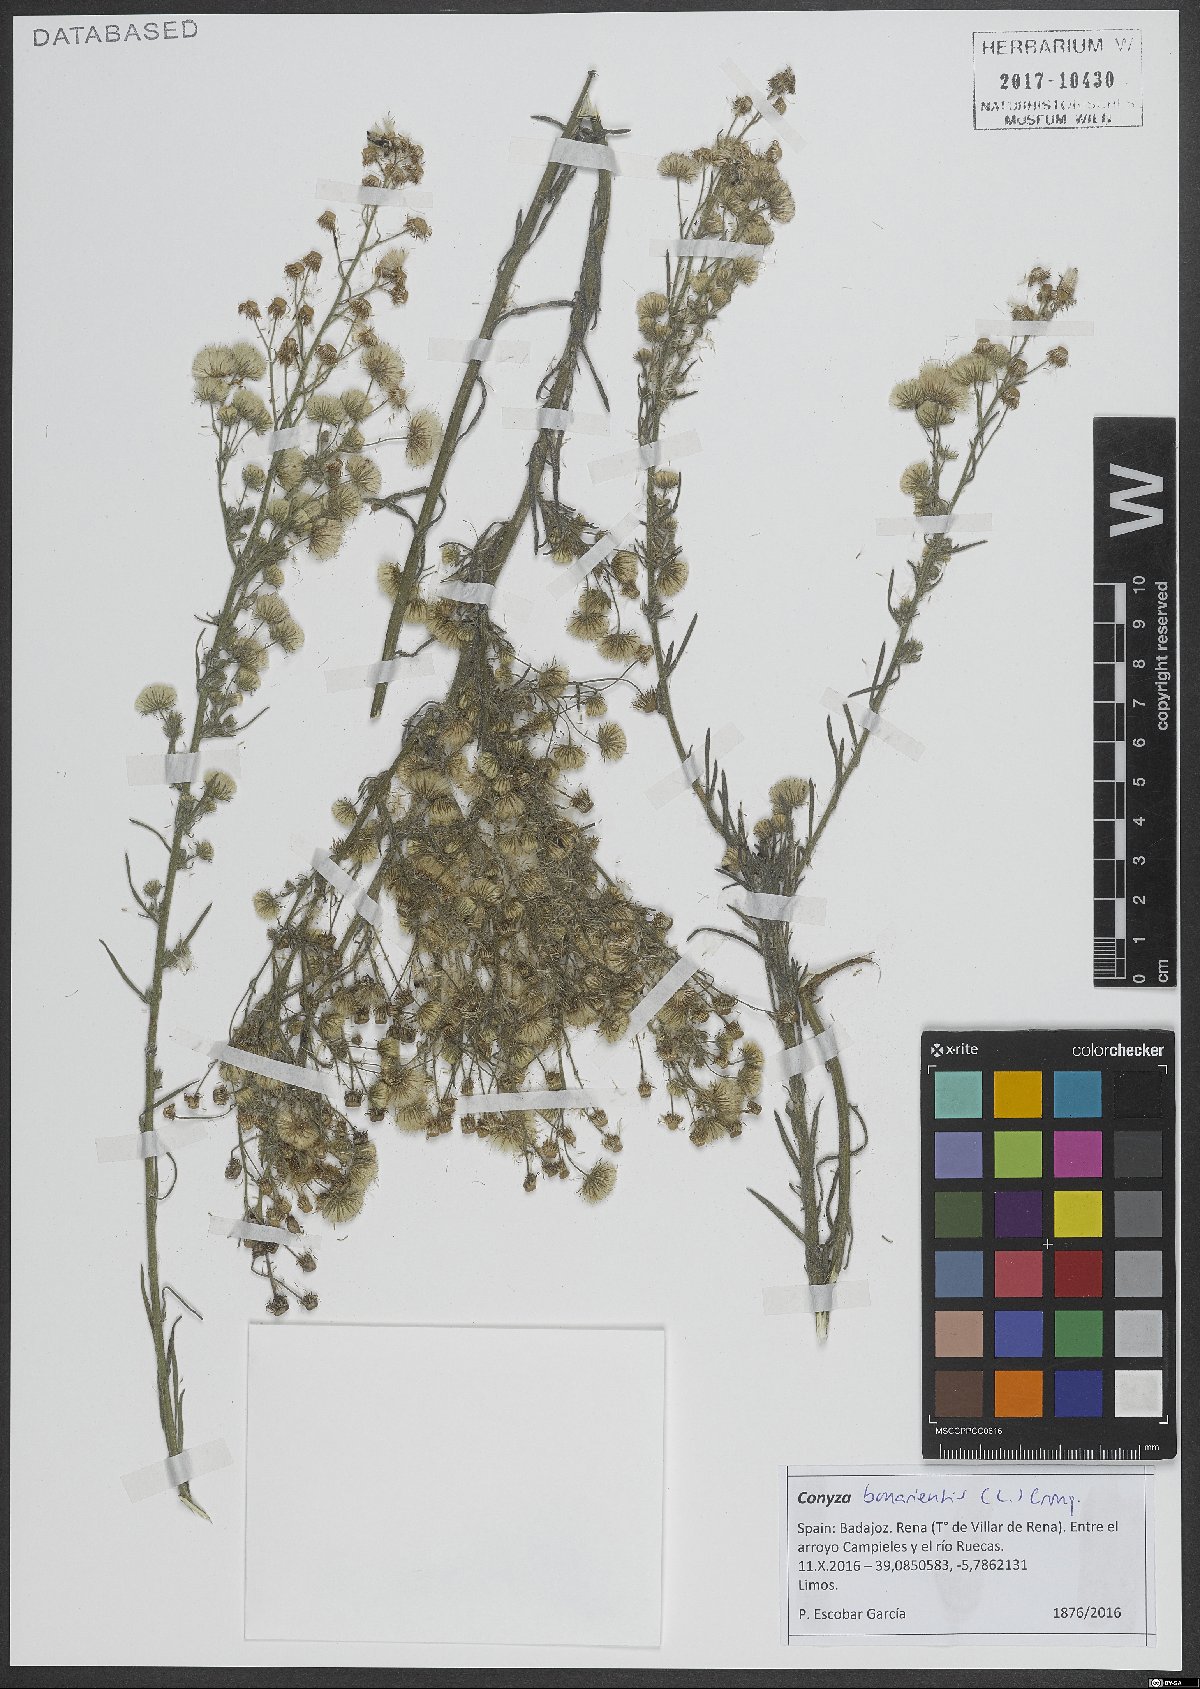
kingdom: Plantae
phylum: Tracheophyta
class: Magnoliopsida
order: Asterales
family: Asteraceae
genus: Erigeron
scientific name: Erigeron bonariensis
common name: Argentine fleabane
